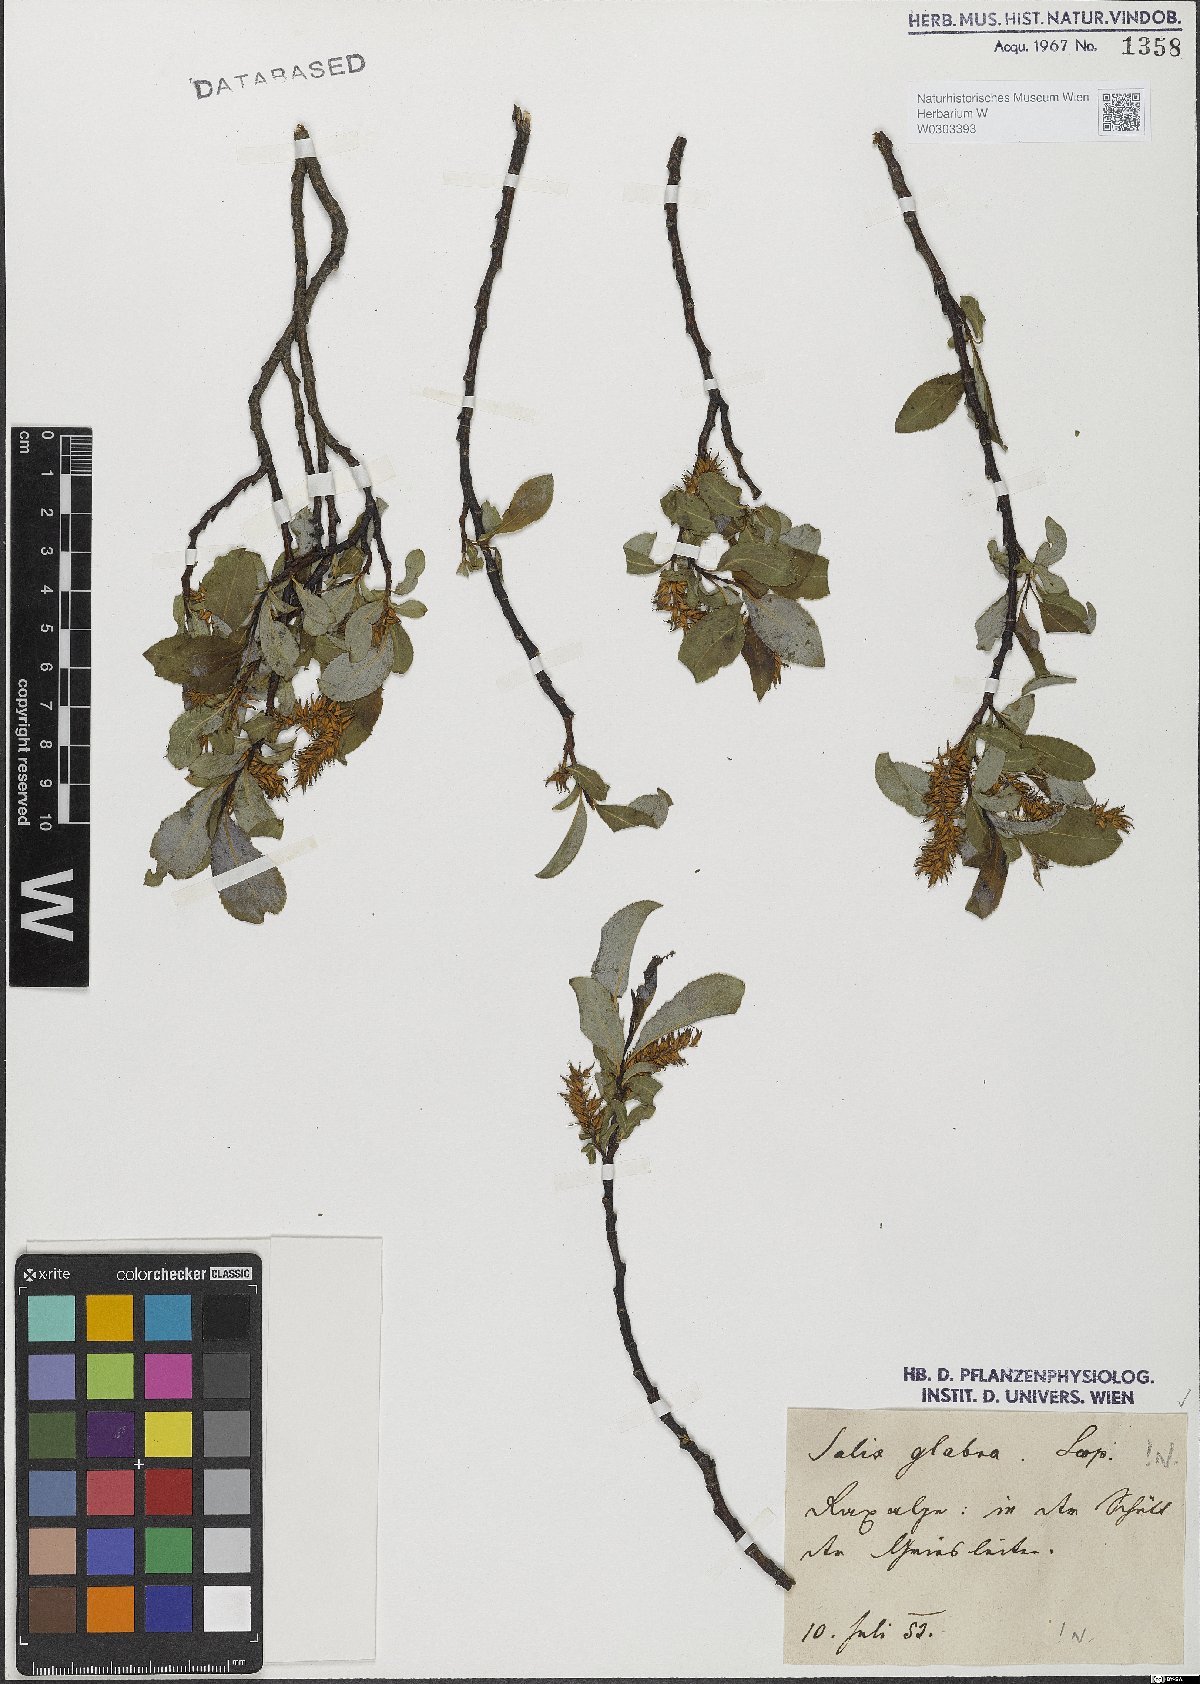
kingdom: Plantae
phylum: Tracheophyta
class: Magnoliopsida
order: Malpighiales
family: Salicaceae
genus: Salix
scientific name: Salix glabra
